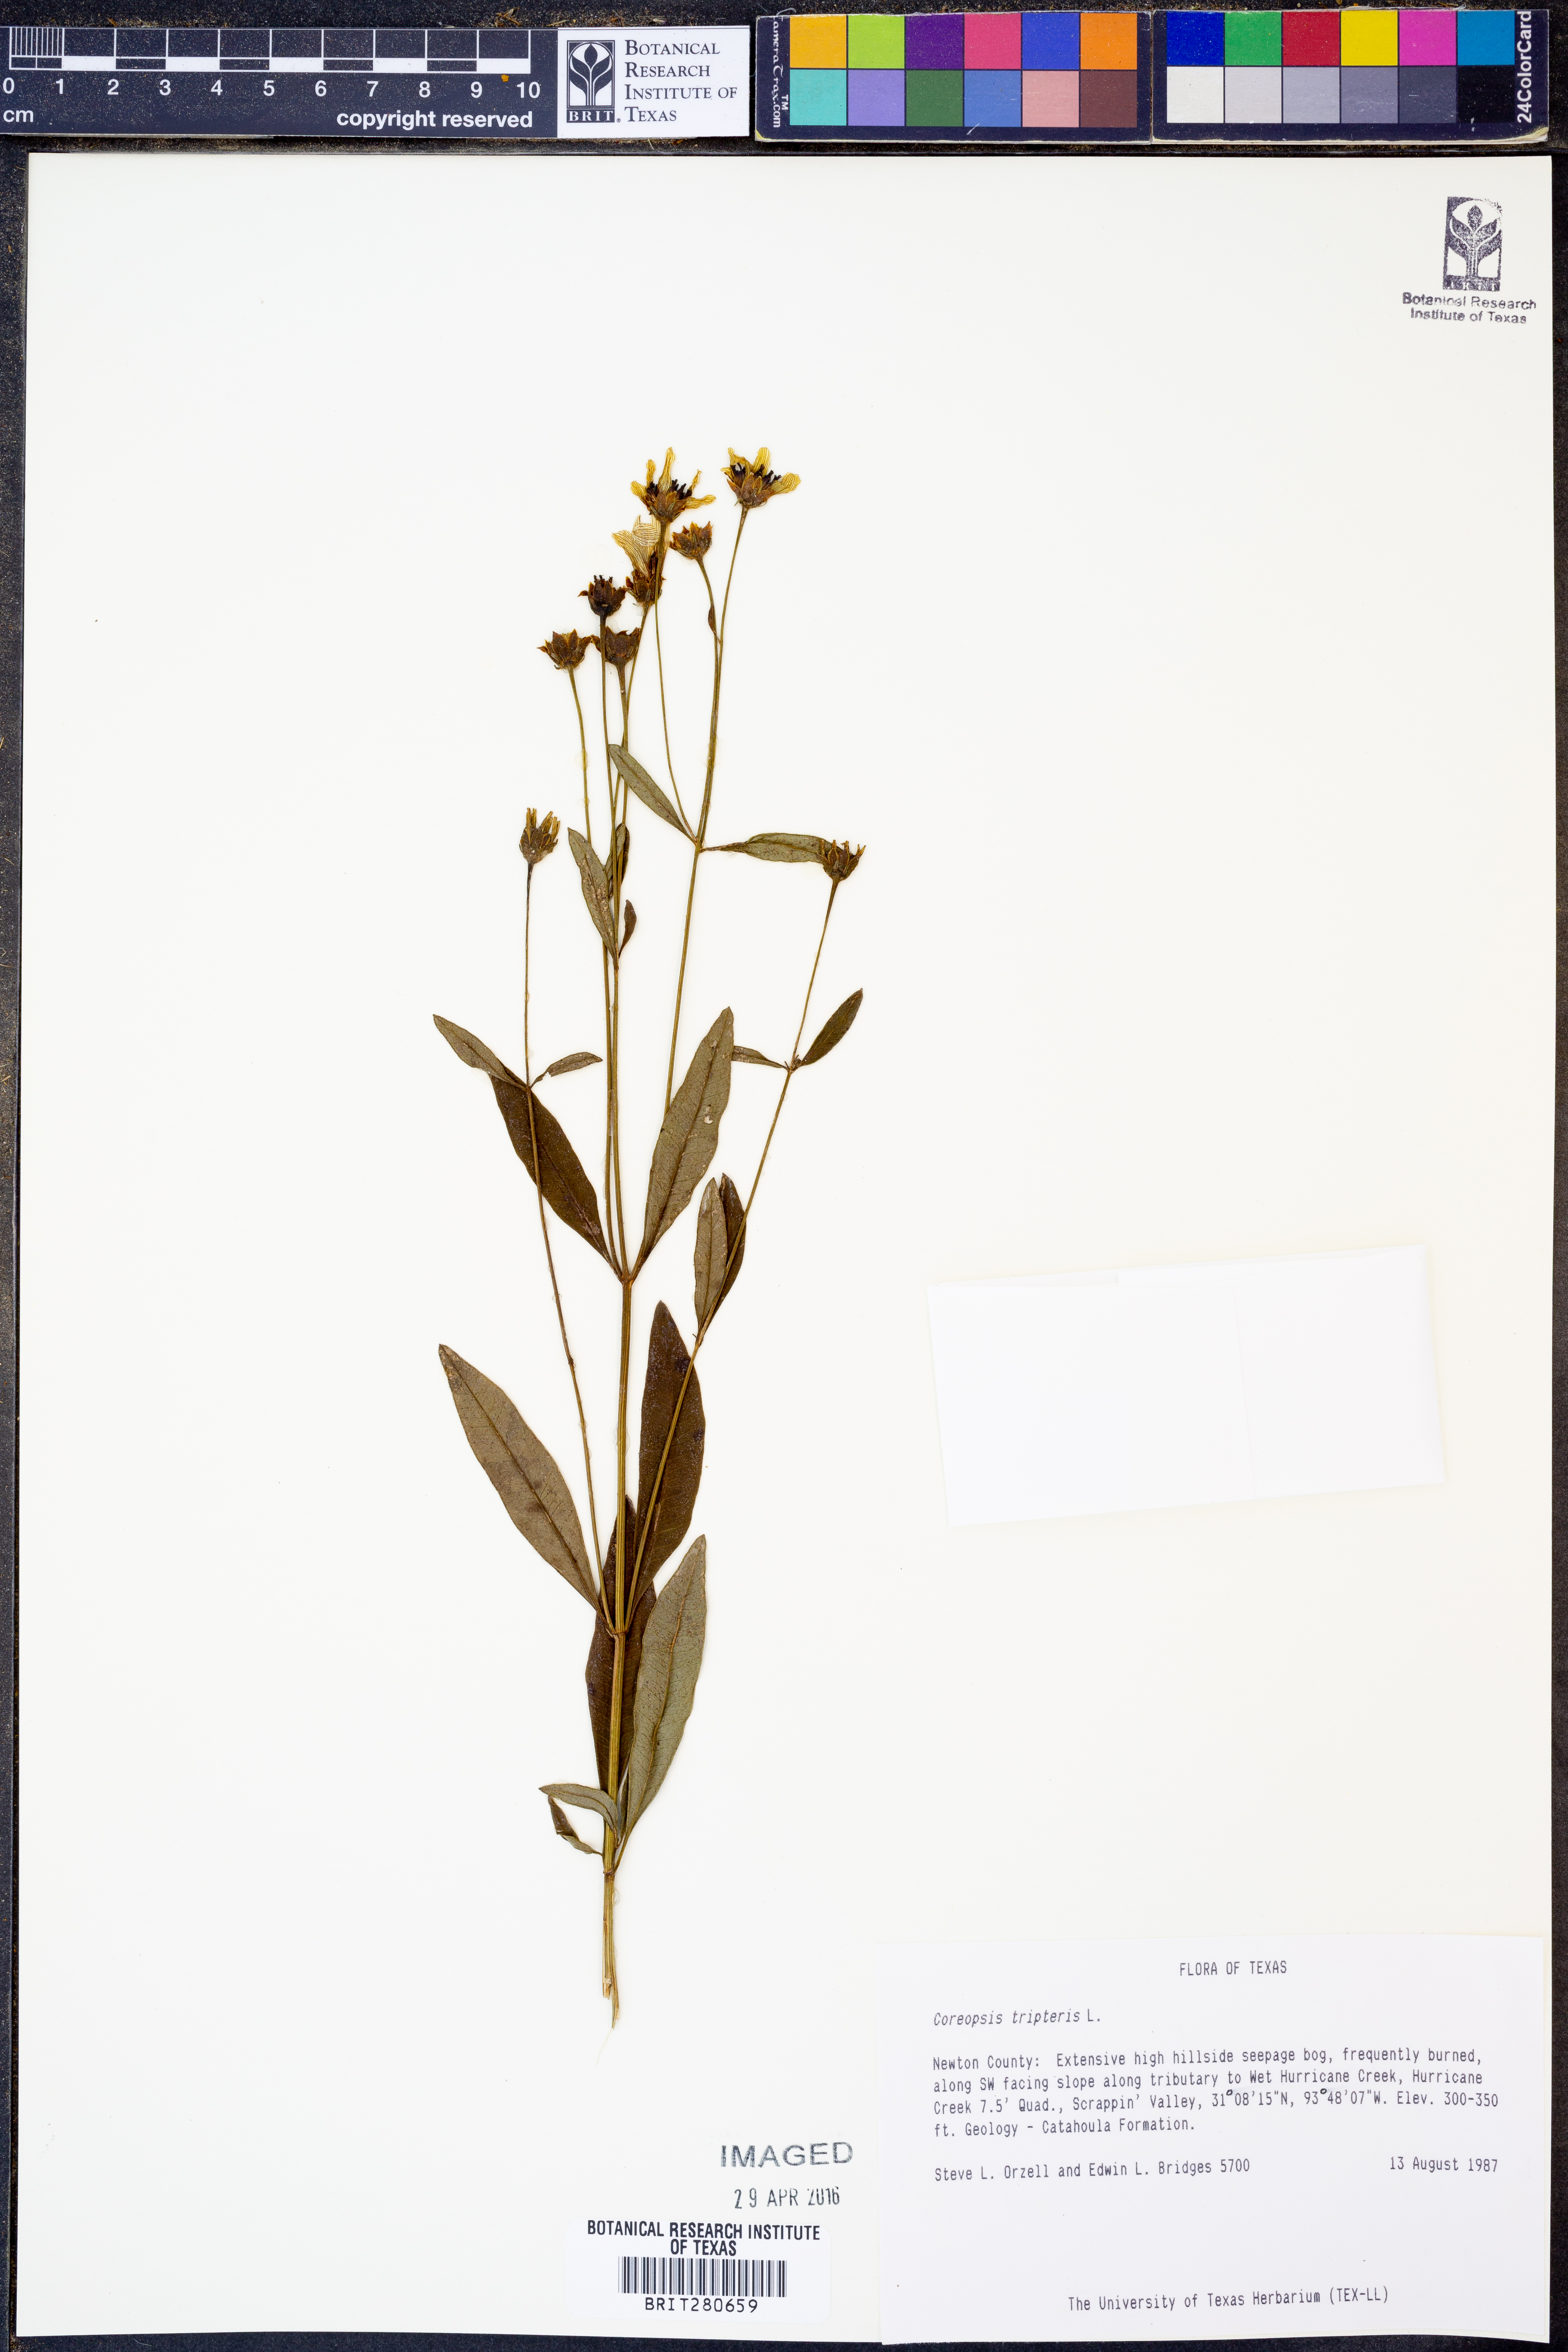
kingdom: Plantae
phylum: Tracheophyta
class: Magnoliopsida
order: Asterales
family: Asteraceae
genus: Coreopsis
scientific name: Coreopsis tripteris
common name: Tall coreopsis
